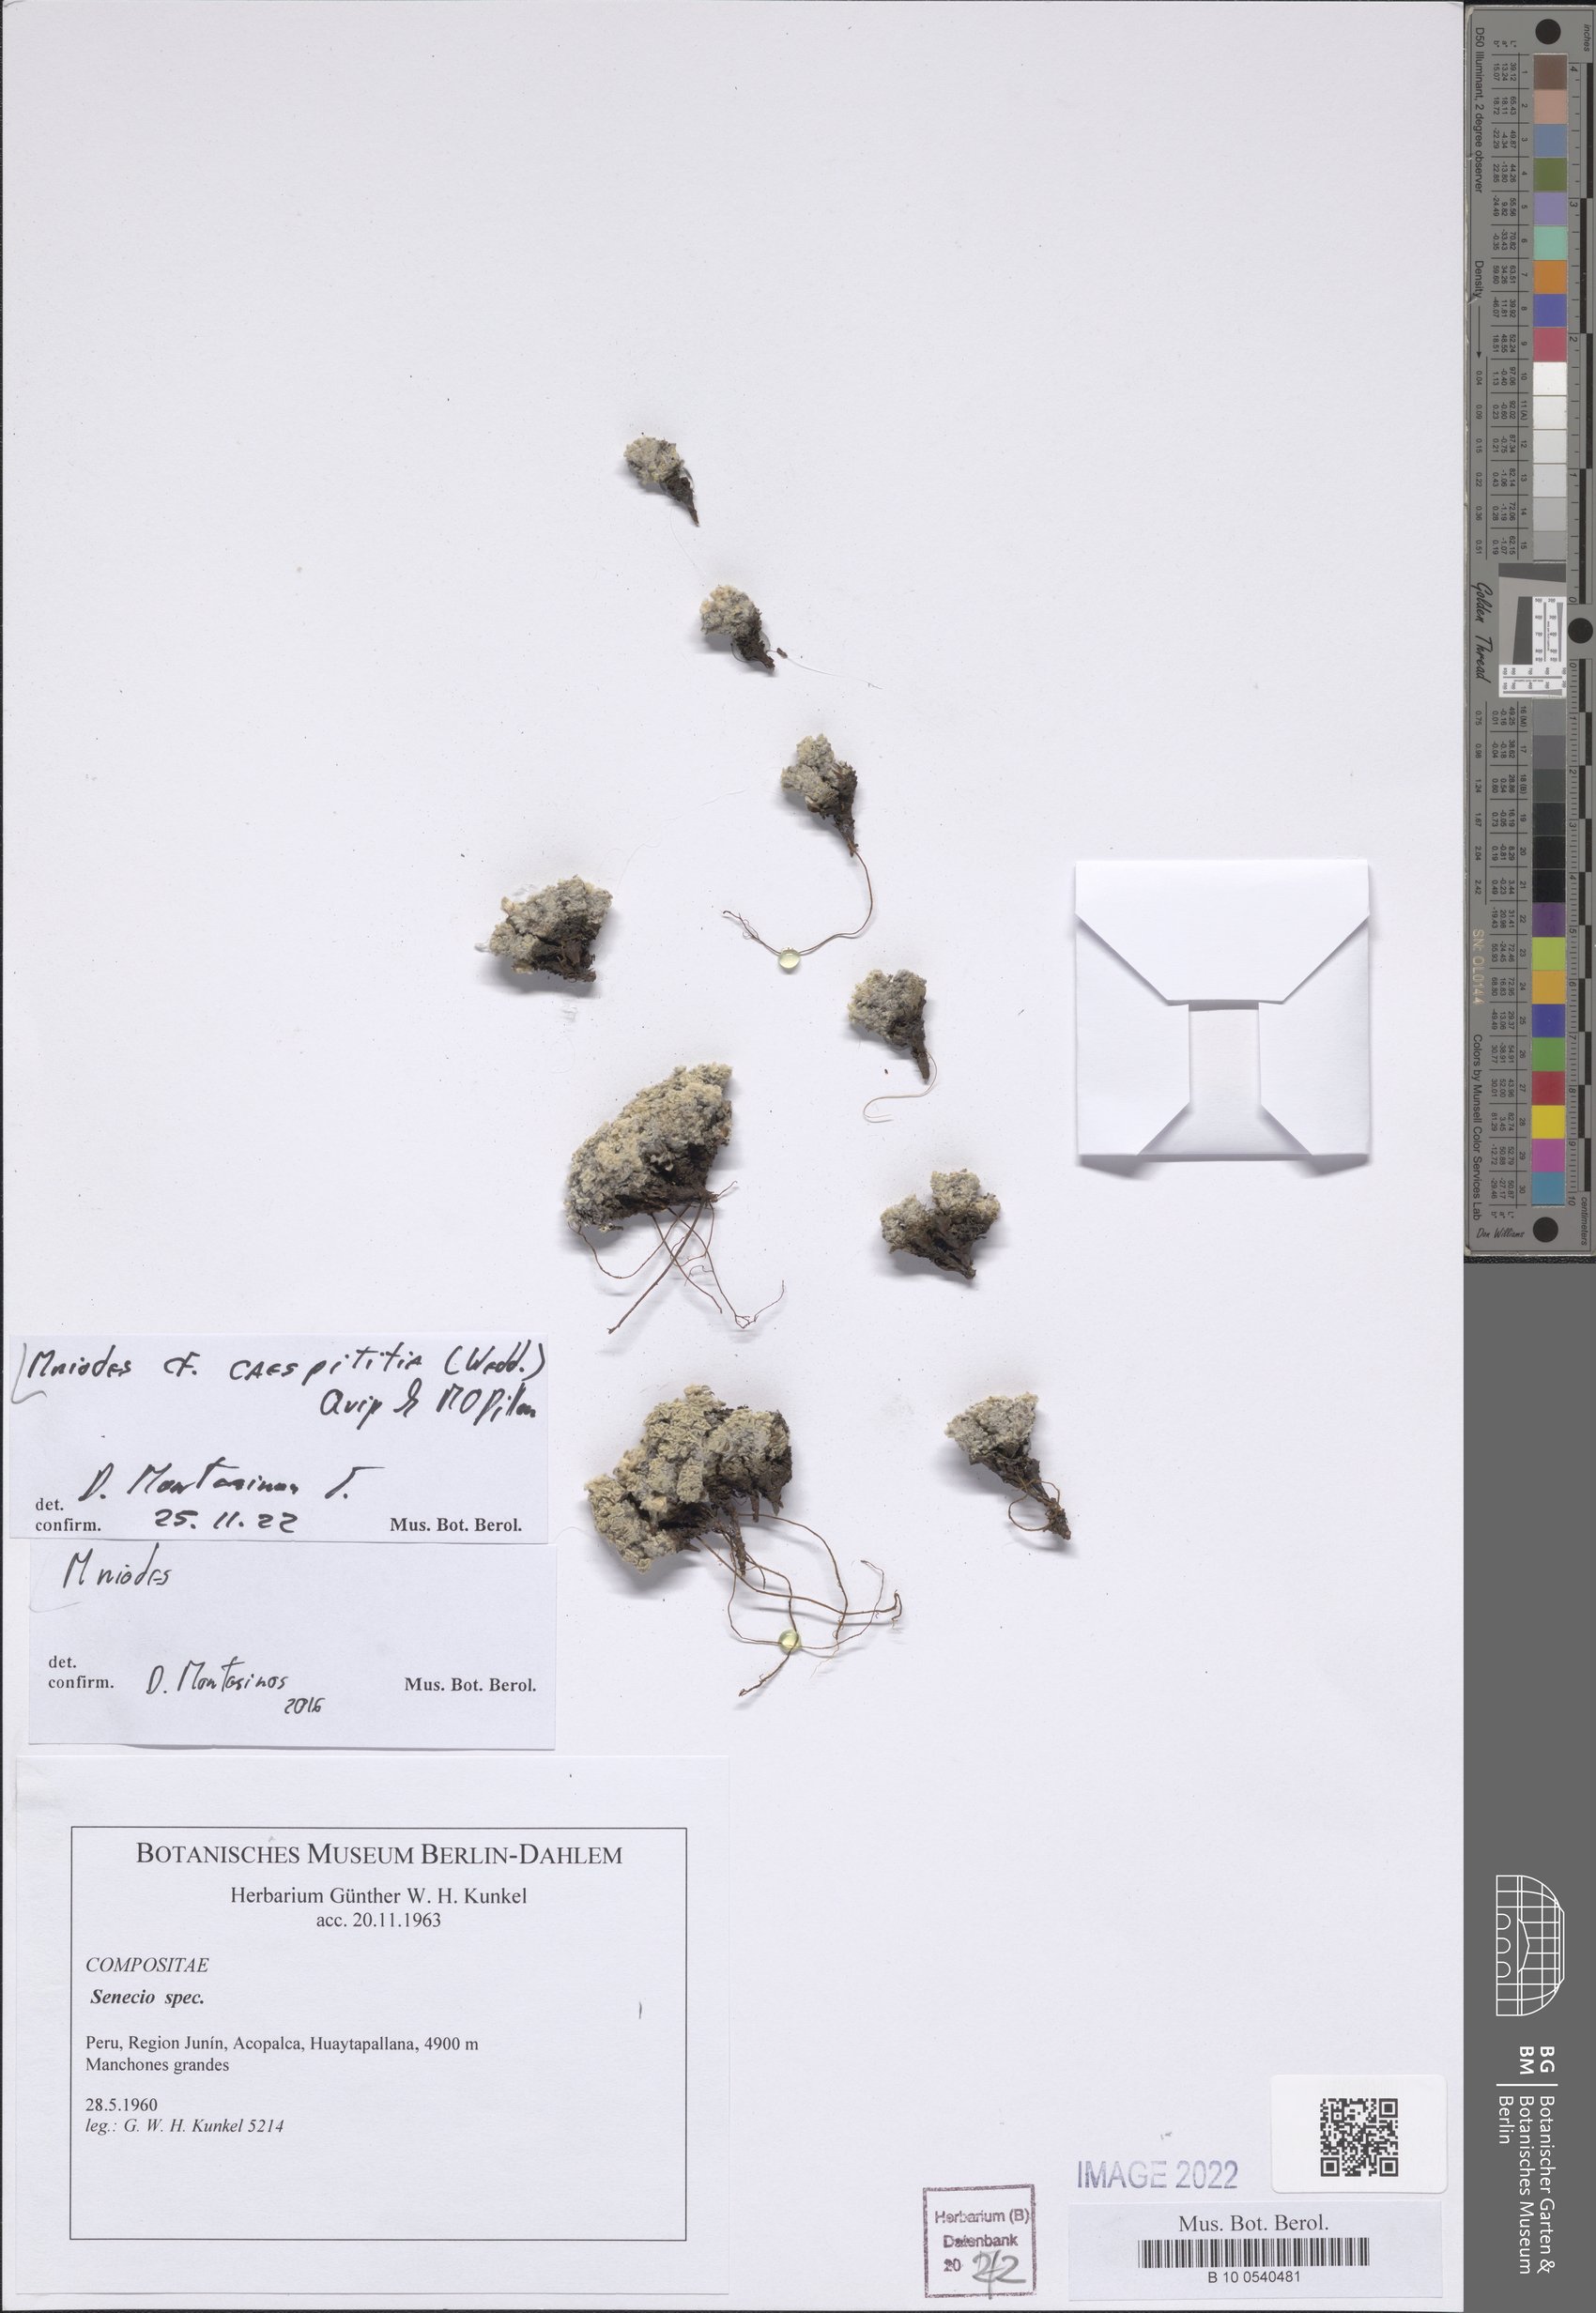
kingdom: Plantae
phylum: Tracheophyta
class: Magnoliopsida
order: Asterales
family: Asteraceae
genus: Mniodes
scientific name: Mniodes caespititia
